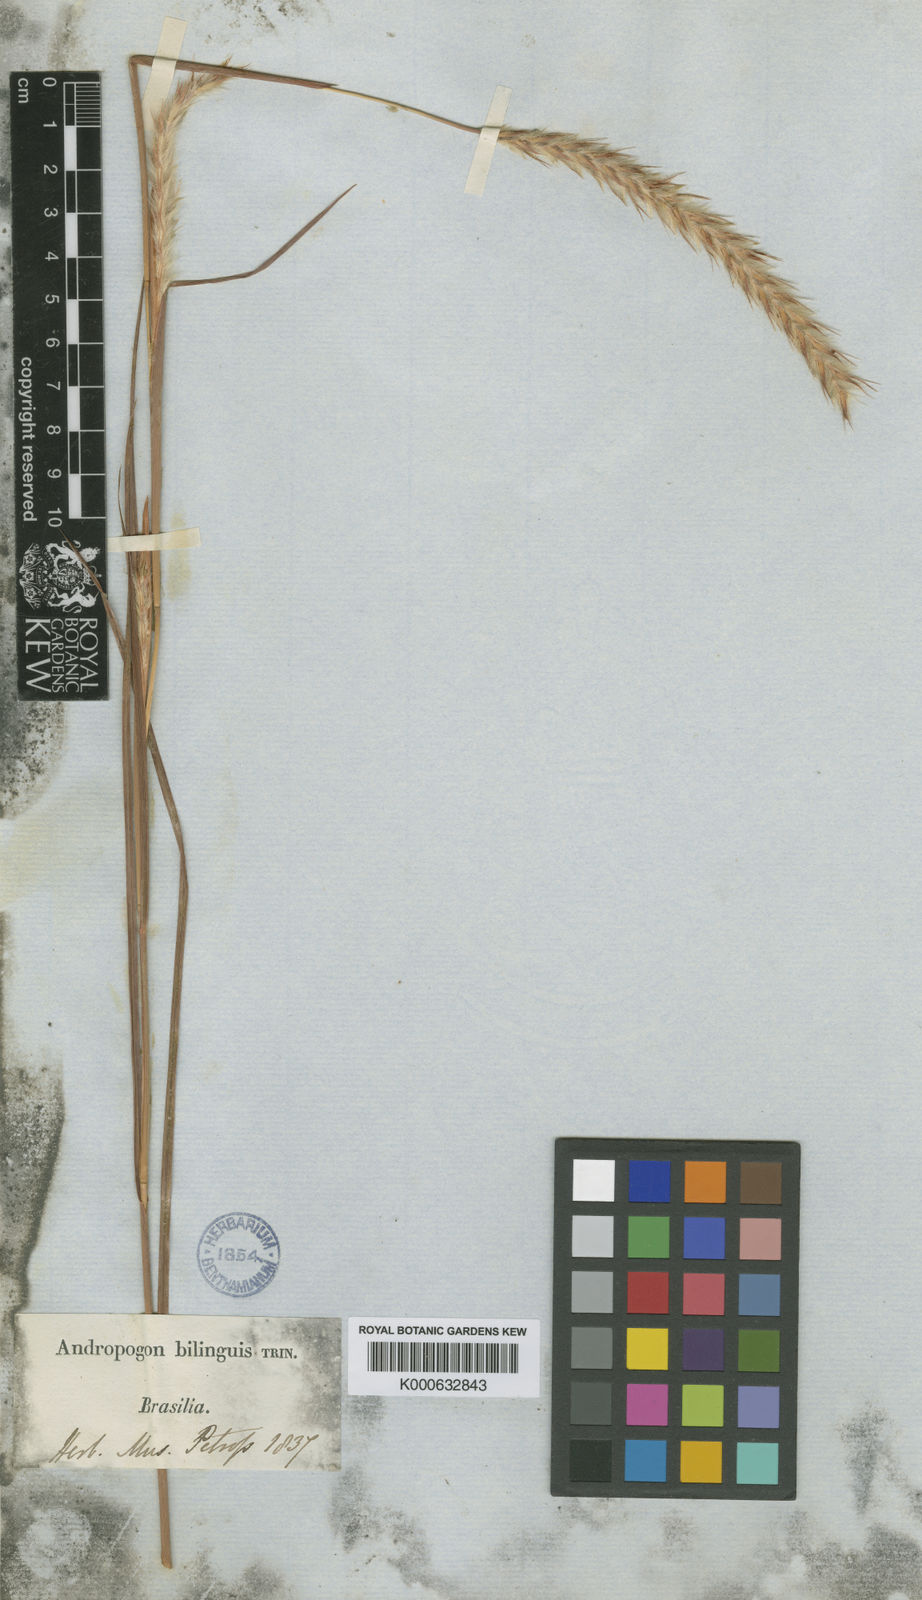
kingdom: Plantae
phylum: Tracheophyta
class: Liliopsida
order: Poales
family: Poaceae
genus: Elionurus
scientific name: Elionurus bilinguis
